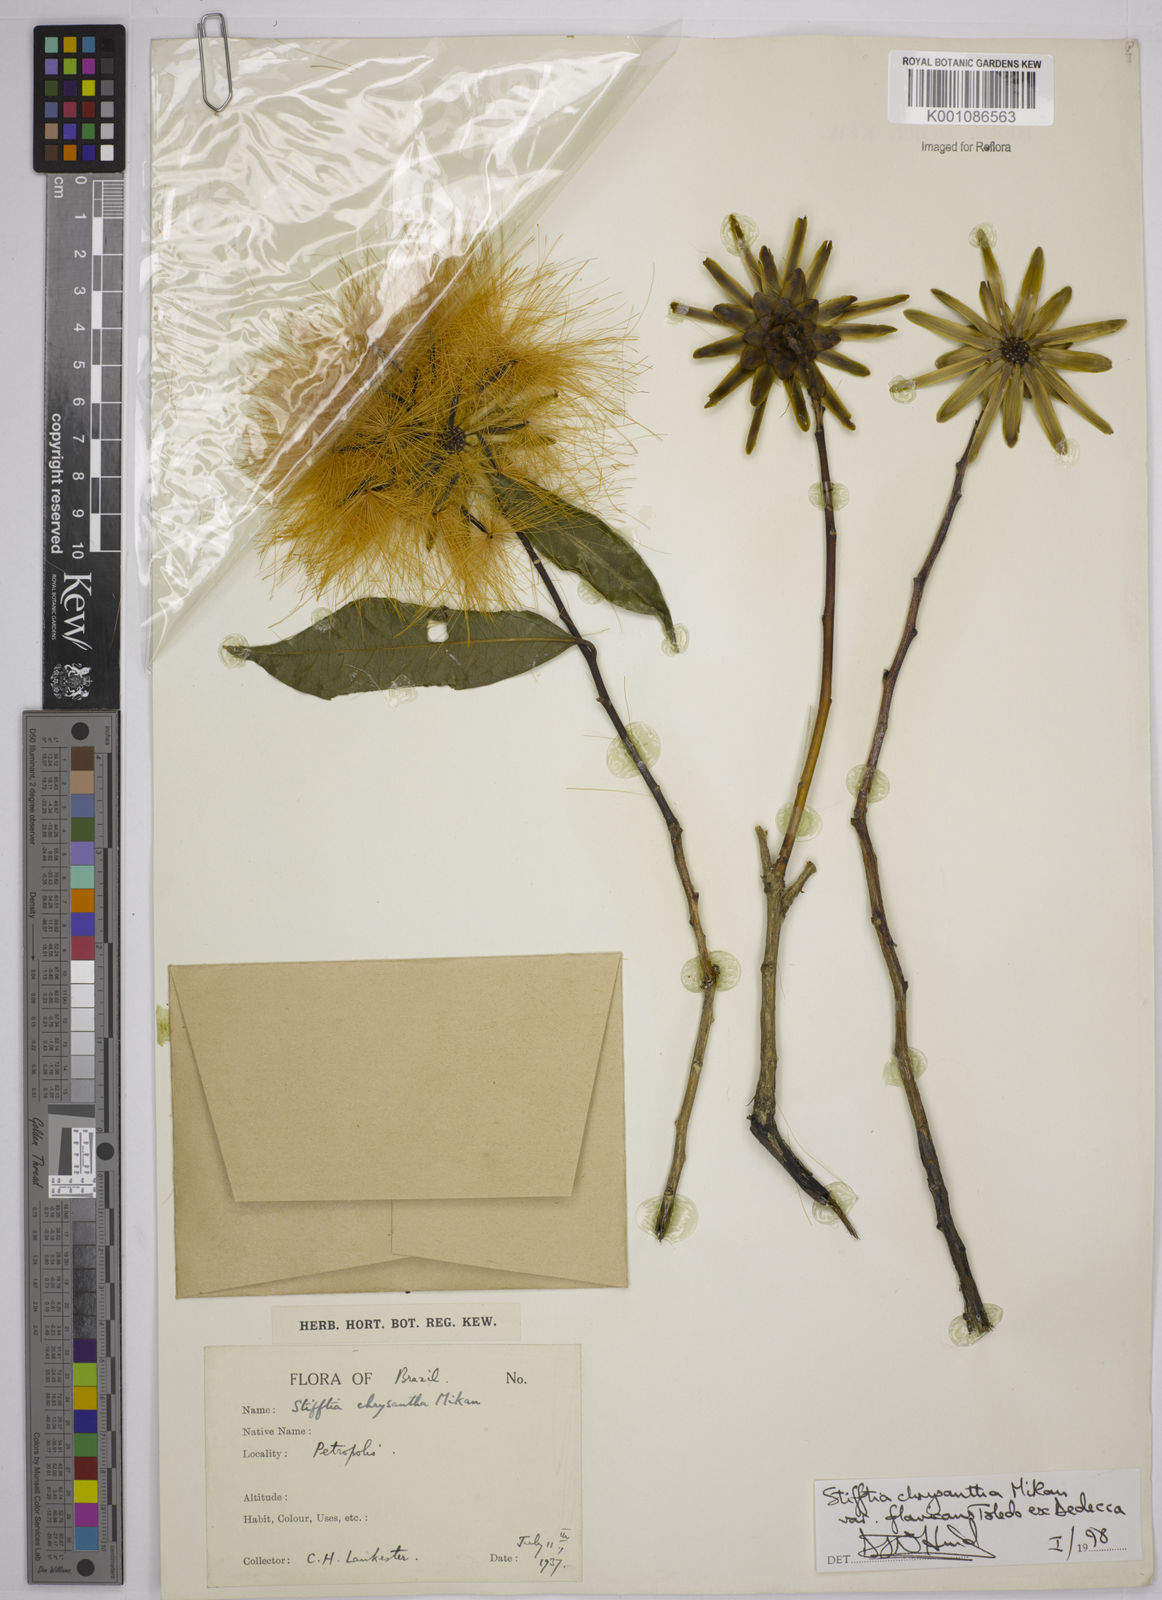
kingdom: Plantae
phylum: Tracheophyta
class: Magnoliopsida
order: Asterales
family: Asteraceae
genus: Stifftia
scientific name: Stifftia chrysantha
